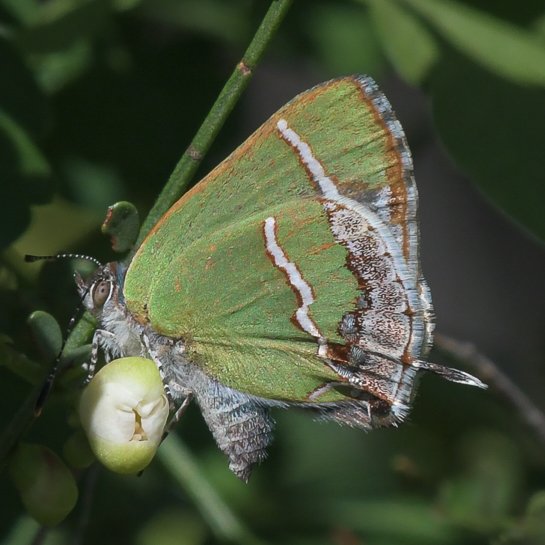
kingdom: Animalia
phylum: Arthropoda
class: Insecta
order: Lepidoptera
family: Lycaenidae
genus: Chlorostrymon
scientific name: Chlorostrymon simaethis
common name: Silver-banded Hairstreak
